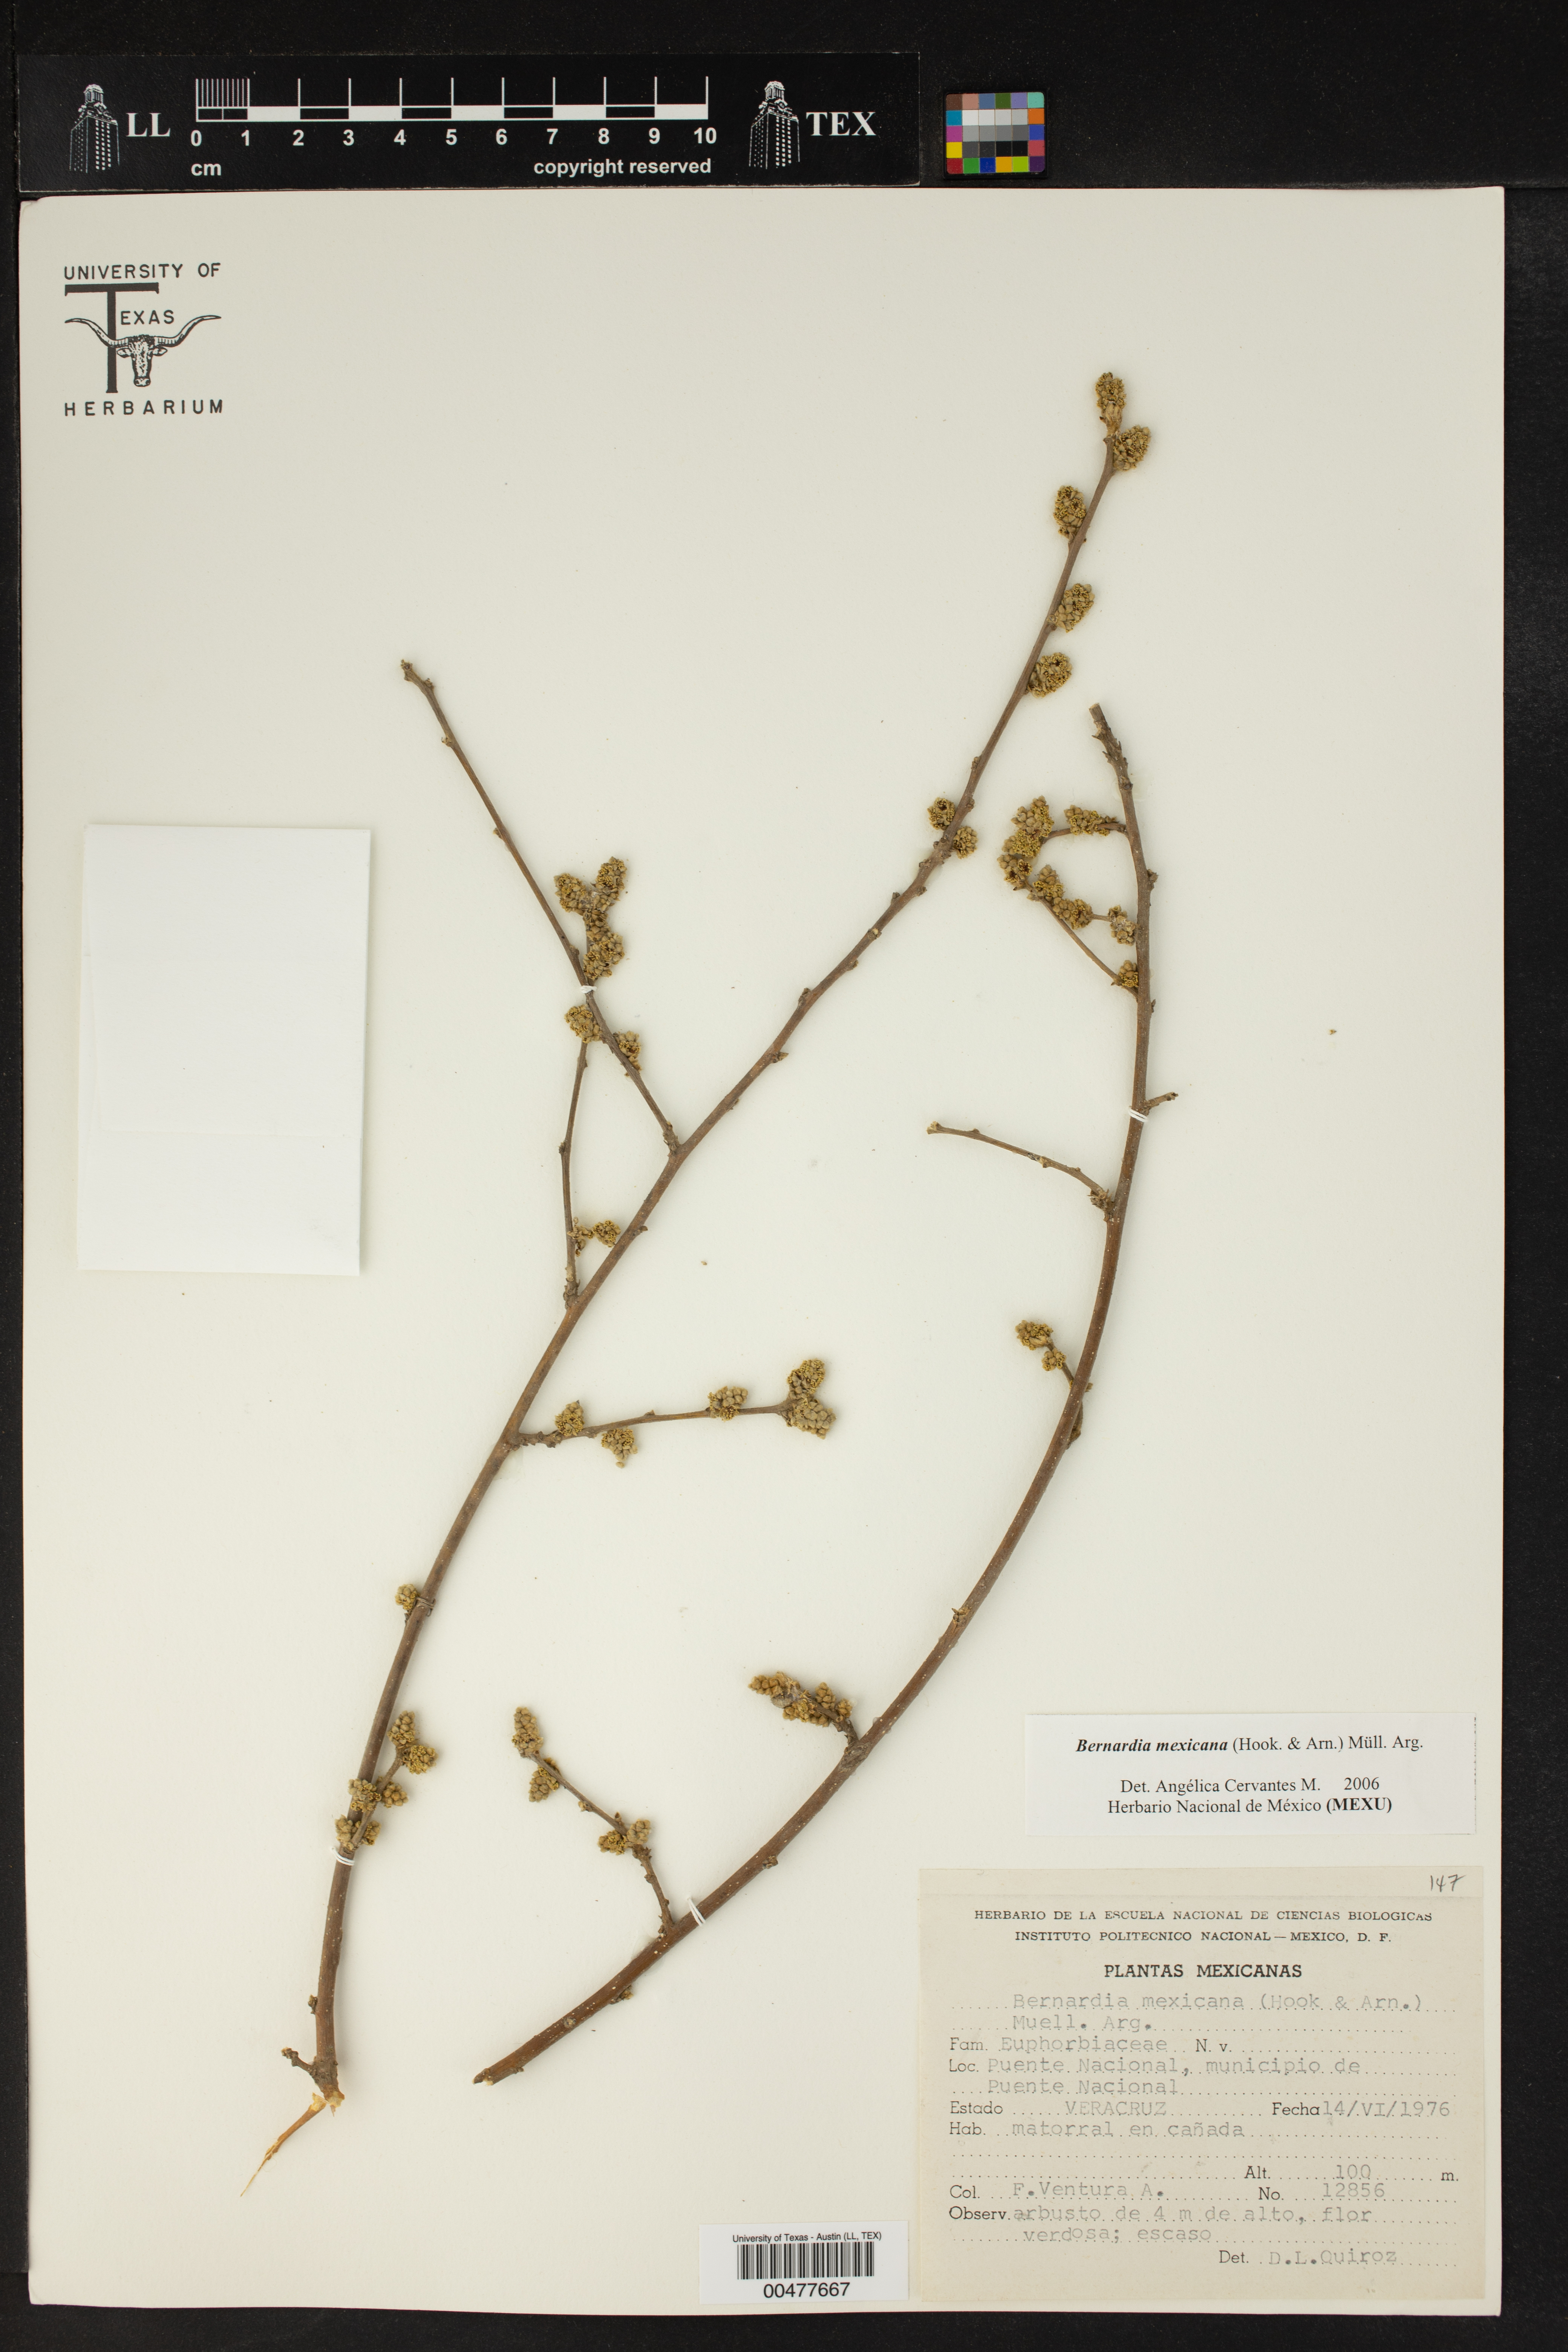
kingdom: Plantae
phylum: Tracheophyta
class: Magnoliopsida
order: Malpighiales
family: Euphorbiaceae
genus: Bernardia
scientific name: Bernardia mexicana
